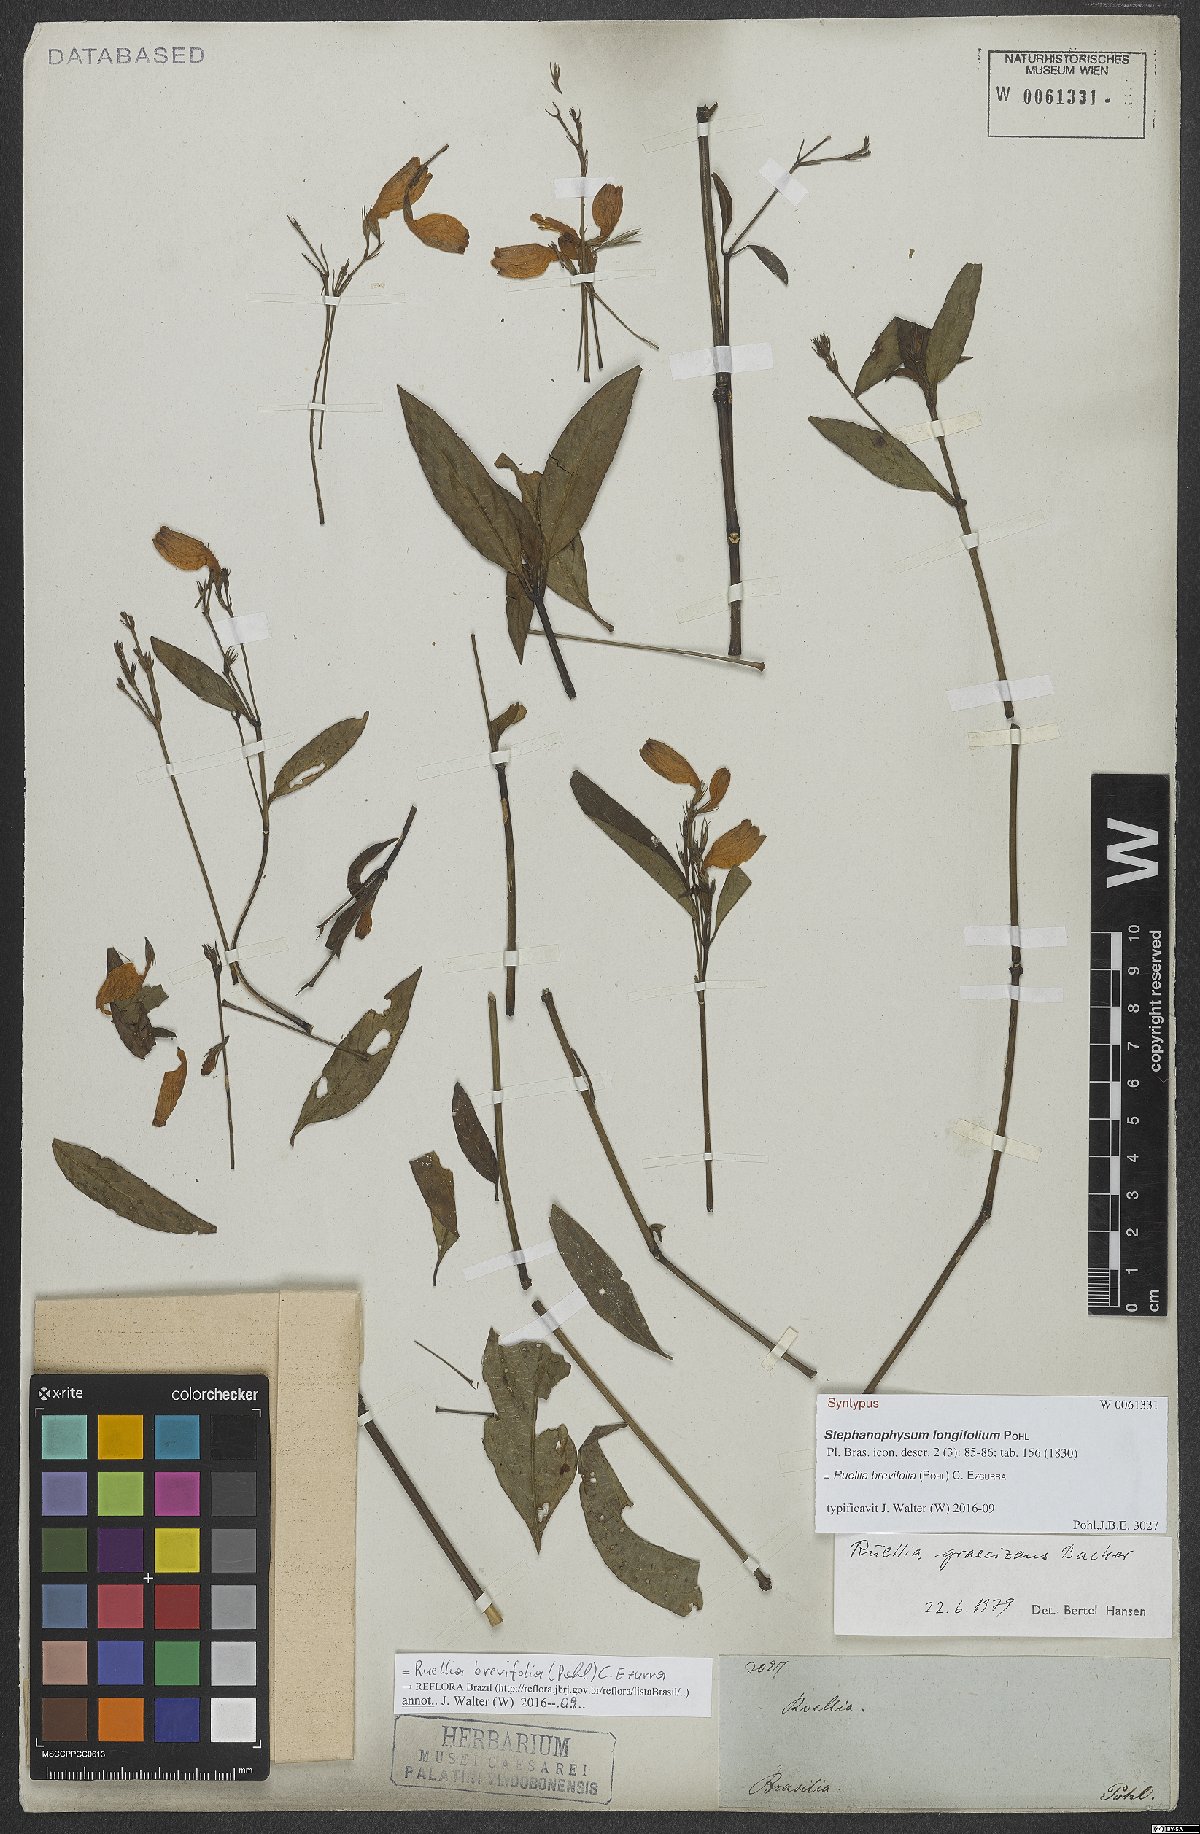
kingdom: Plantae
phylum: Tracheophyta
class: Magnoliopsida
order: Lamiales
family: Acanthaceae
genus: Ruellia
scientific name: Ruellia brevifolia
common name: Tropical wild petunia
